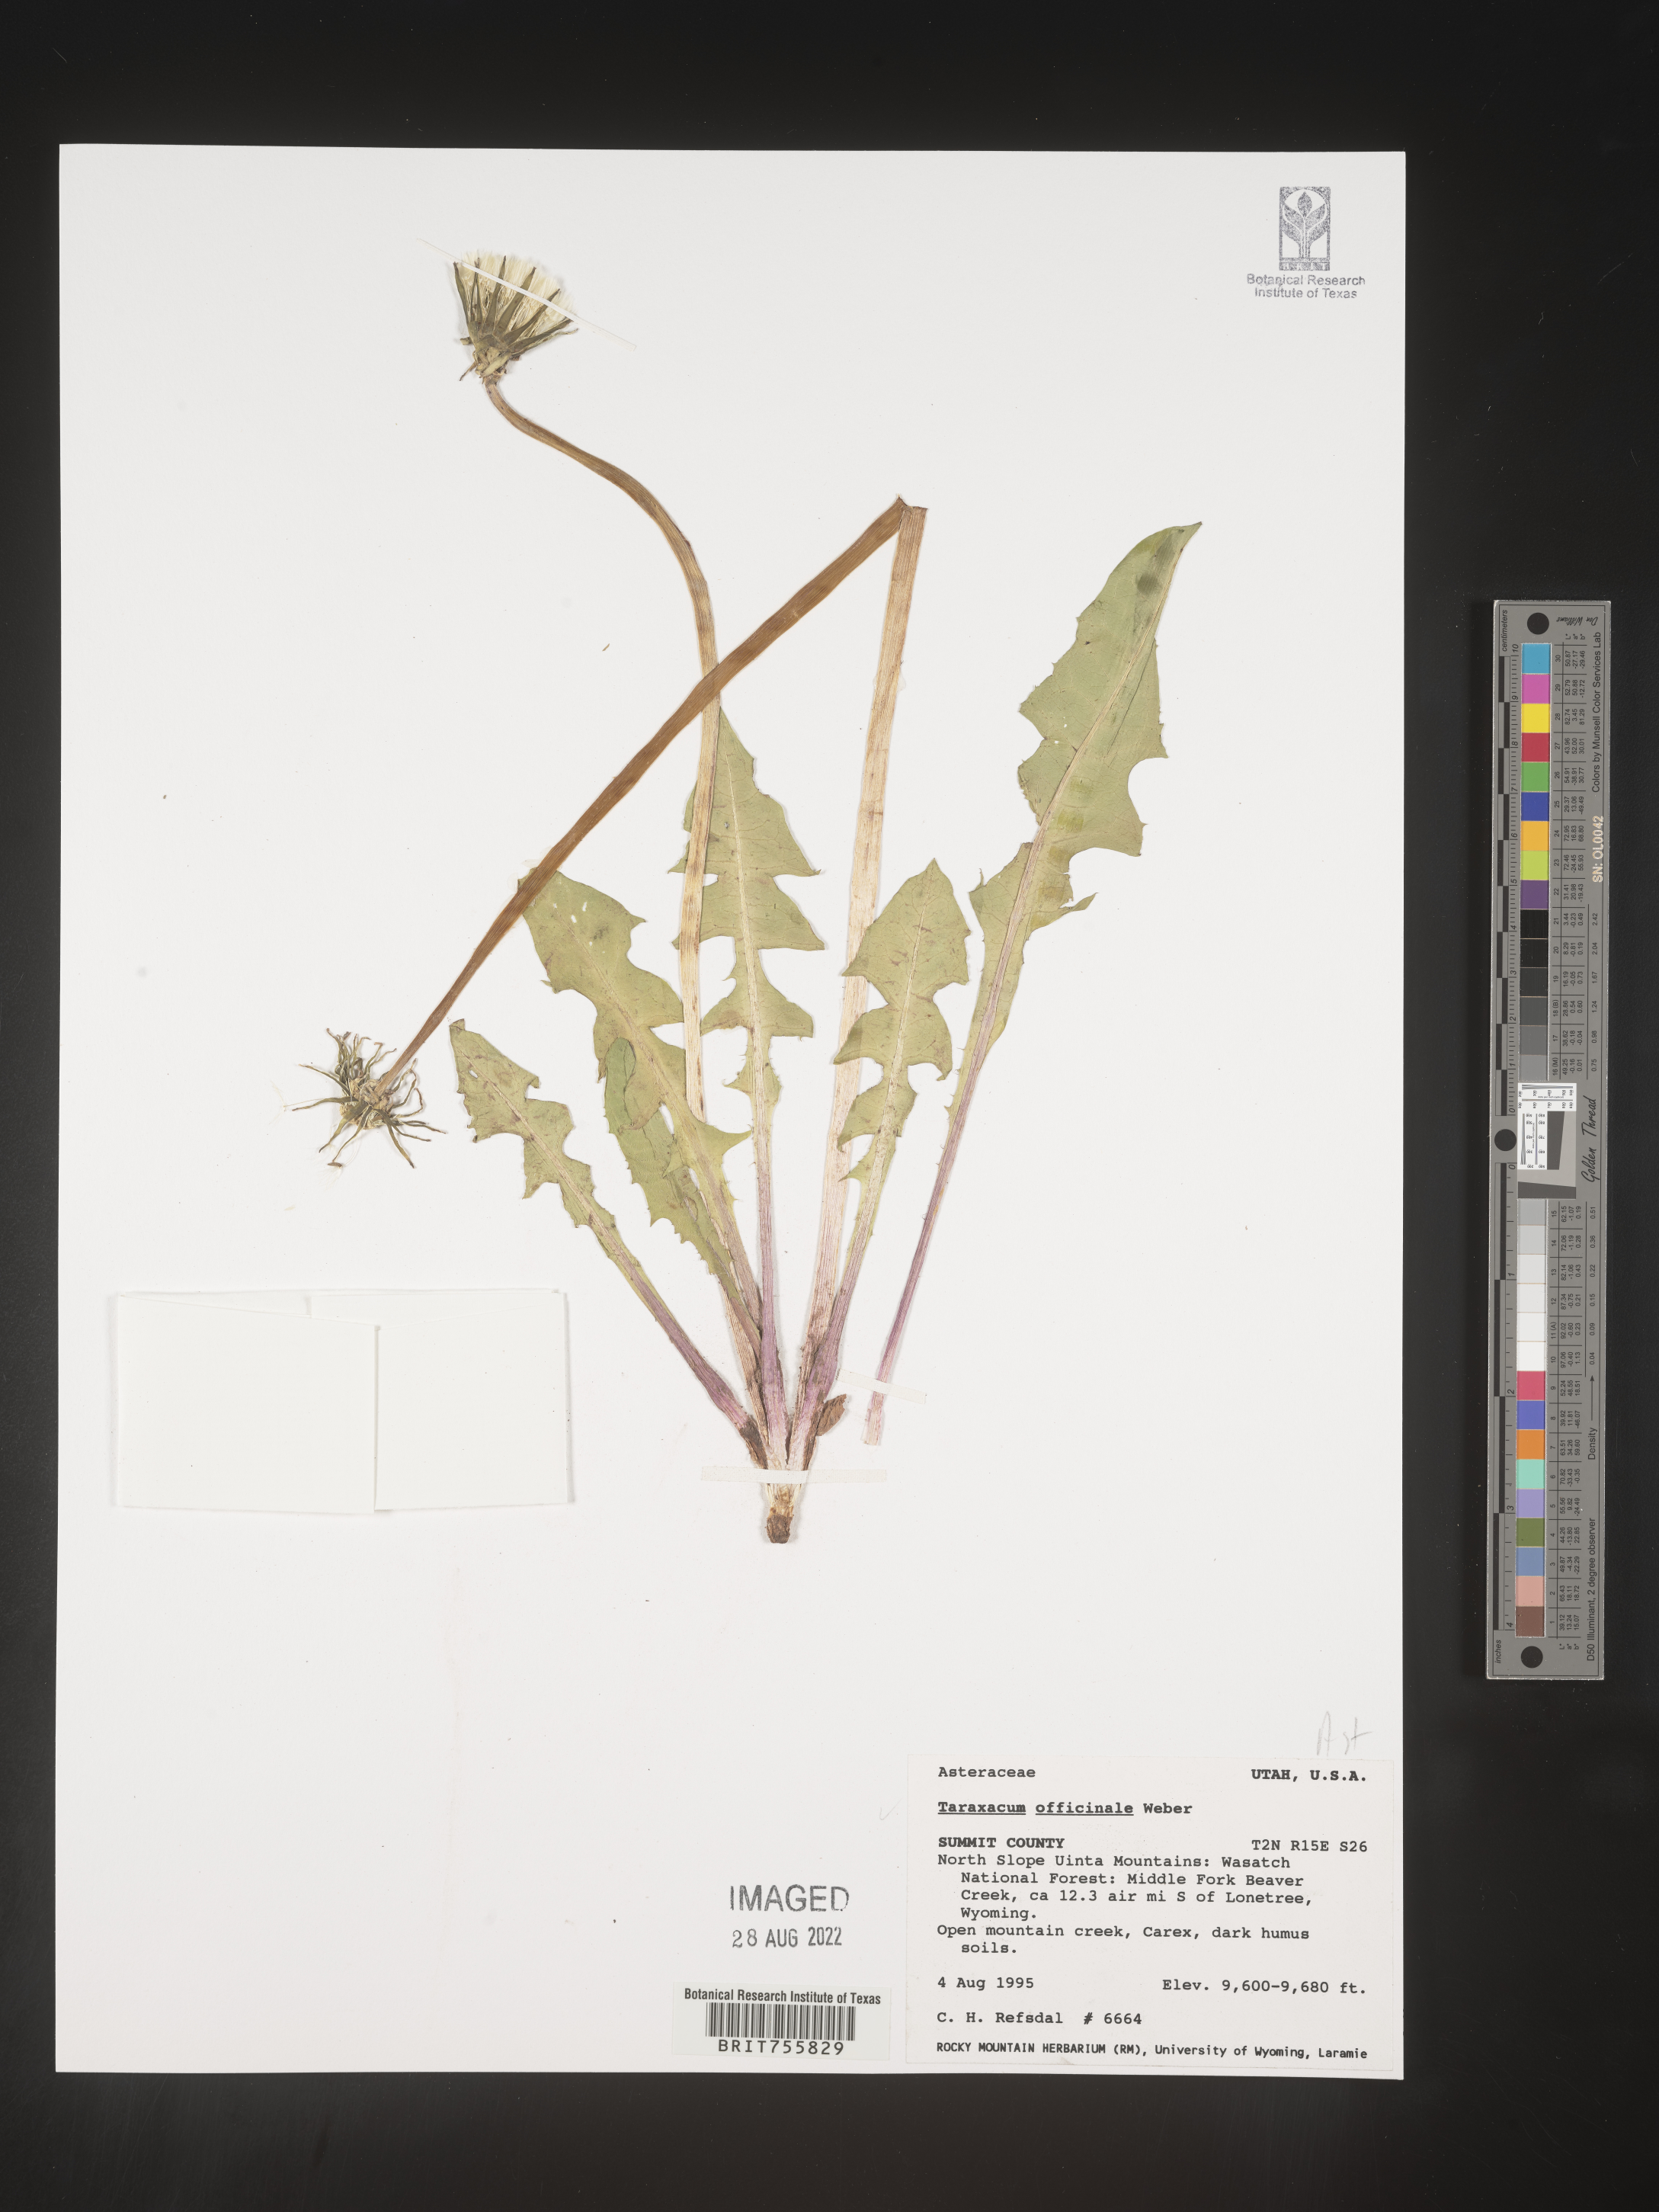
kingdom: Plantae
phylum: Tracheophyta
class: Magnoliopsida
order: Asterales
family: Asteraceae
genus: Taraxacum
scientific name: Taraxacum officinale
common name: Common dandelion
